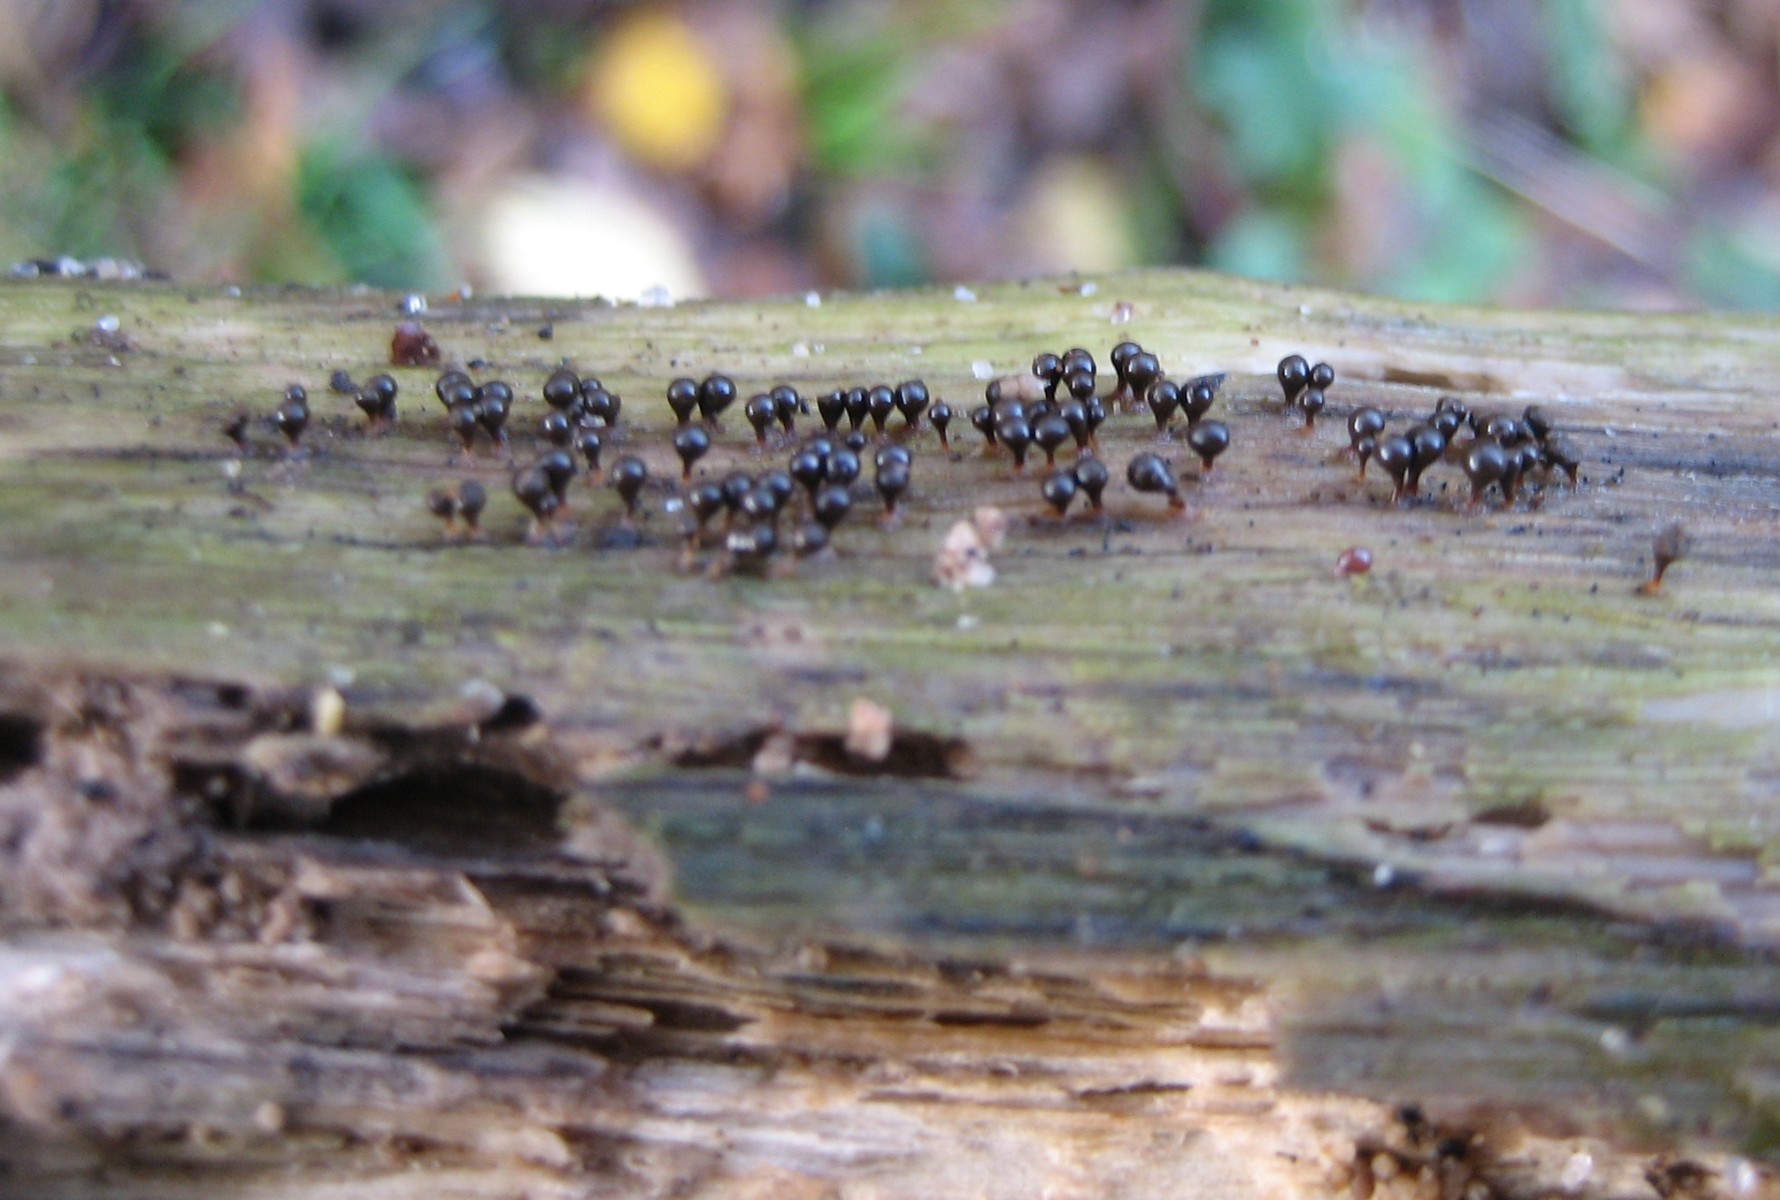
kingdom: Protozoa
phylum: Mycetozoa
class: Myxomycetes
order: Trichiales
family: Trichiaceae
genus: Trichia
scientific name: Trichia
